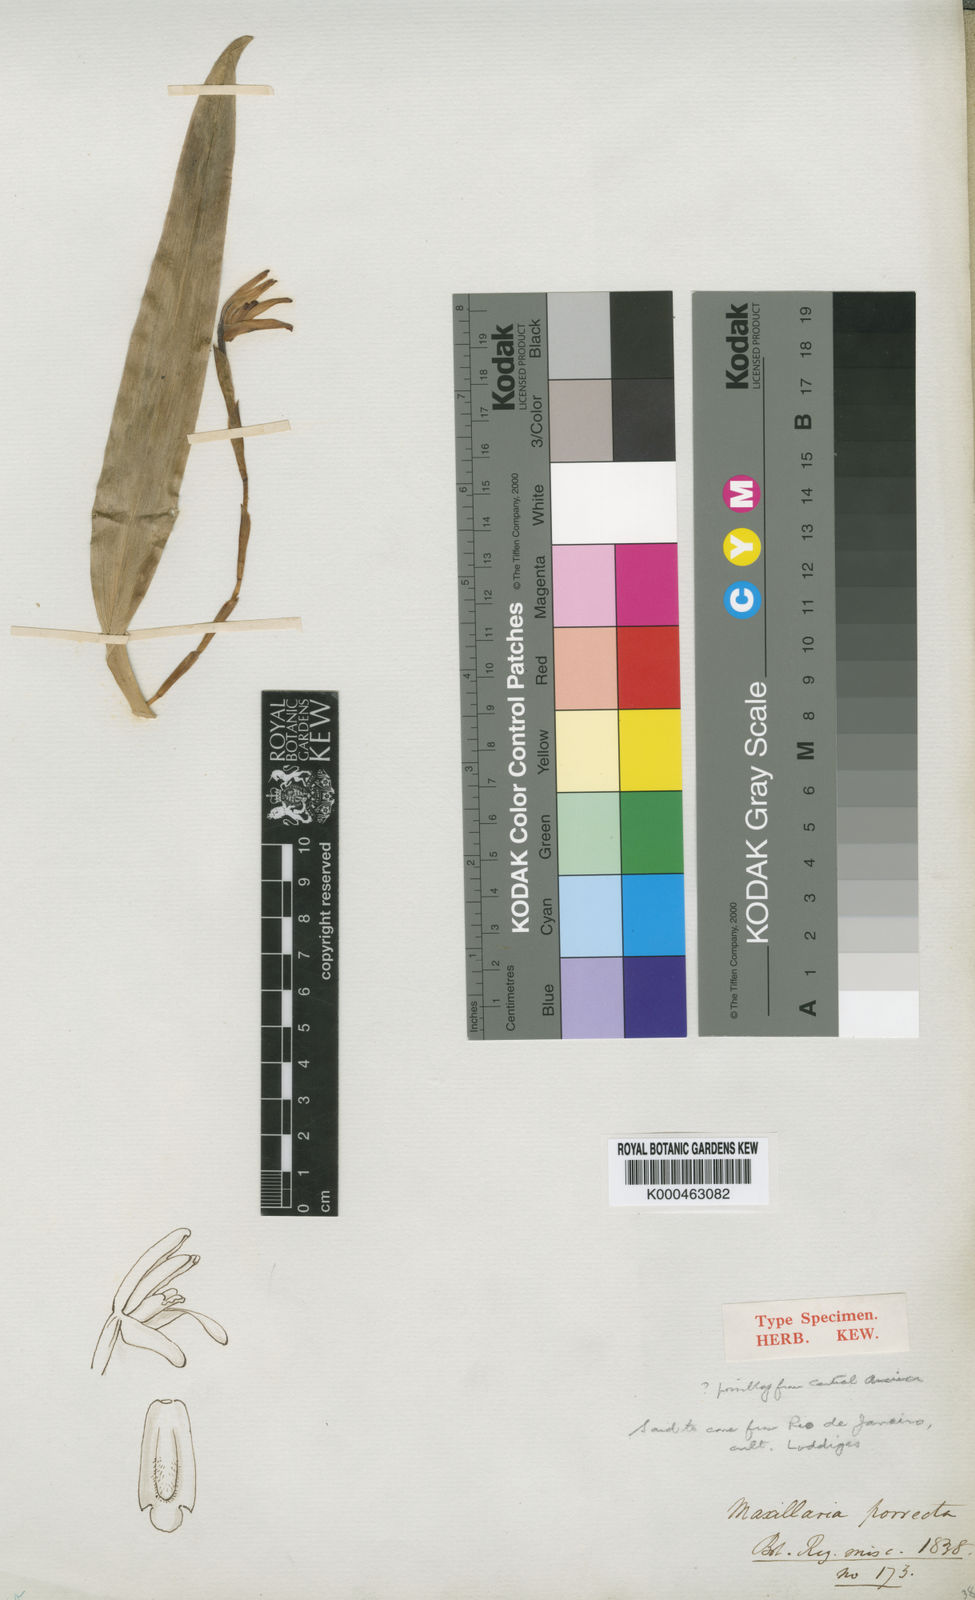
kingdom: Plantae
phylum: Tracheophyta
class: Liliopsida
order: Asparagales
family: Orchidaceae
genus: Maxillaria
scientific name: Maxillaria porrecta
